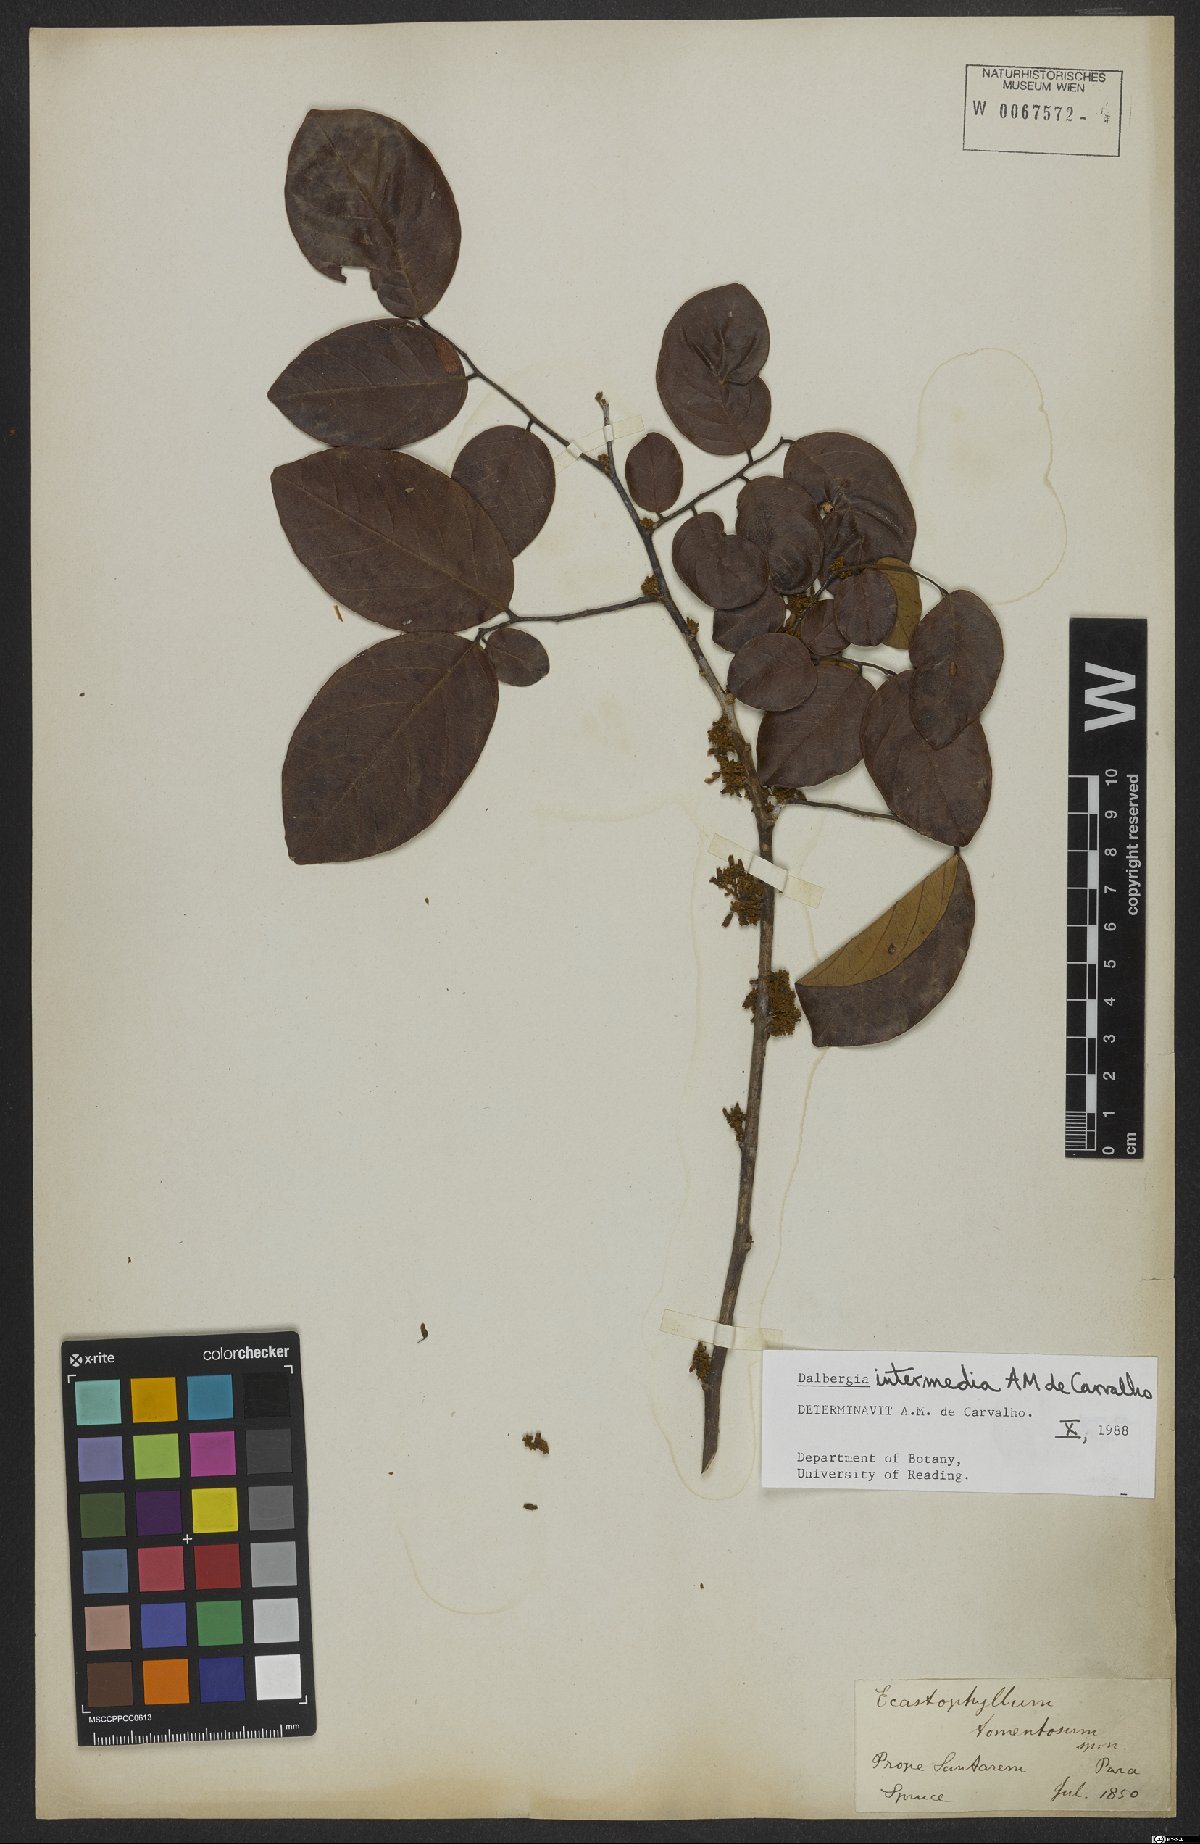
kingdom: Plantae
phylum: Tracheophyta
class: Magnoliopsida
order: Fabales
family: Fabaceae
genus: Dalbergia
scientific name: Dalbergia intermedia
